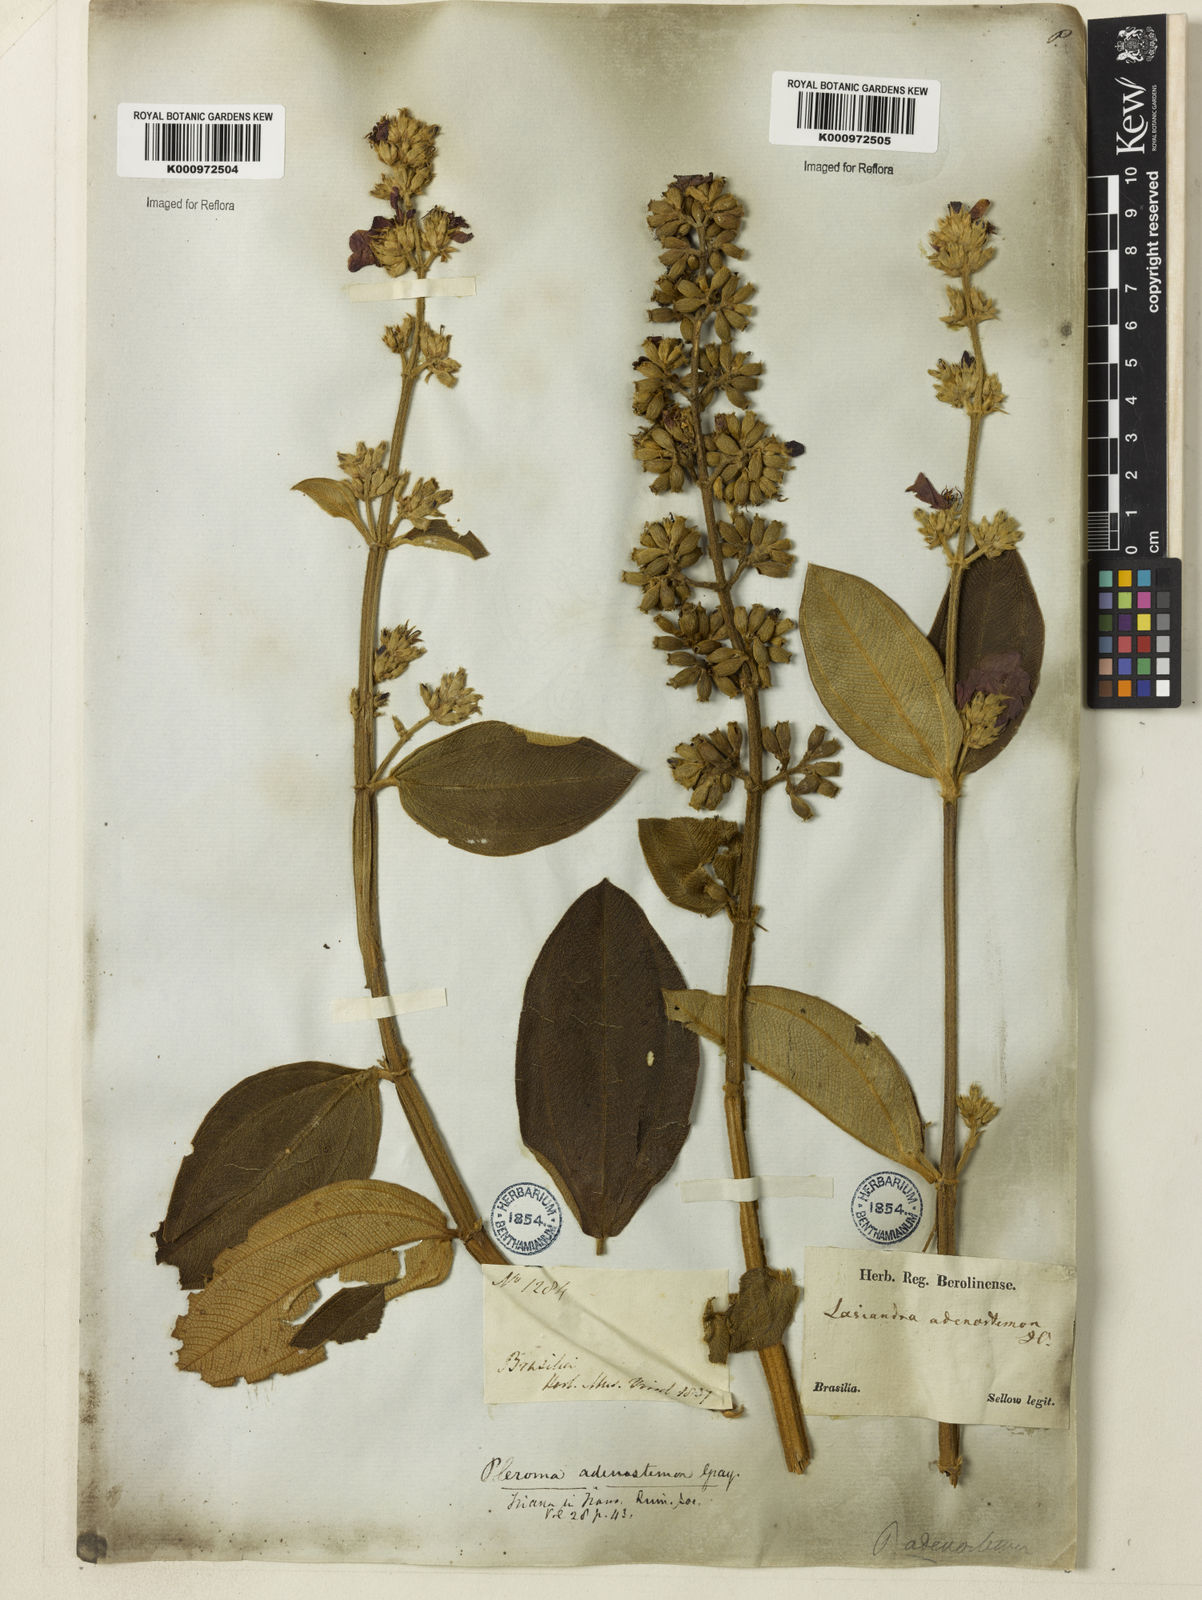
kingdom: Plantae
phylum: Tracheophyta
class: Magnoliopsida
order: Myrtales
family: Melastomataceae
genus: Pleroma
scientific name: Pleroma heteromallum
